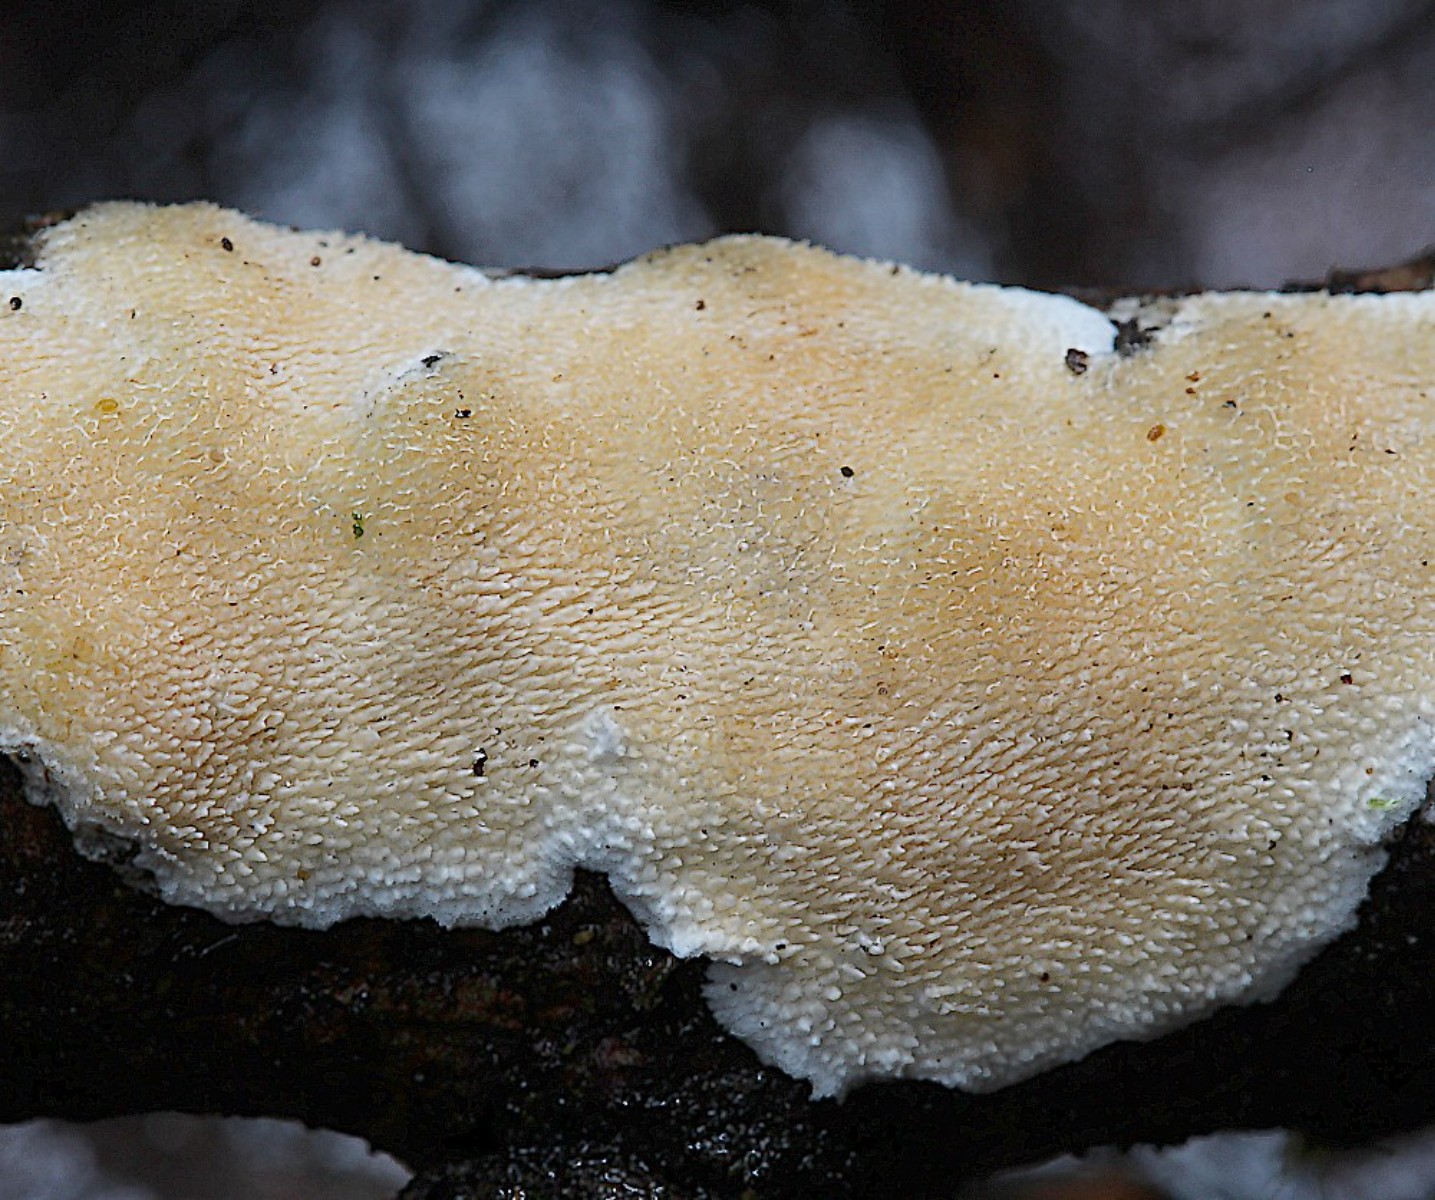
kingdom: Fungi
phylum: Basidiomycota
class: Agaricomycetes
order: Polyporales
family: Steccherinaceae
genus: Steccherinum
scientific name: Steccherinum ochraceum
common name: almindelig skønpig
